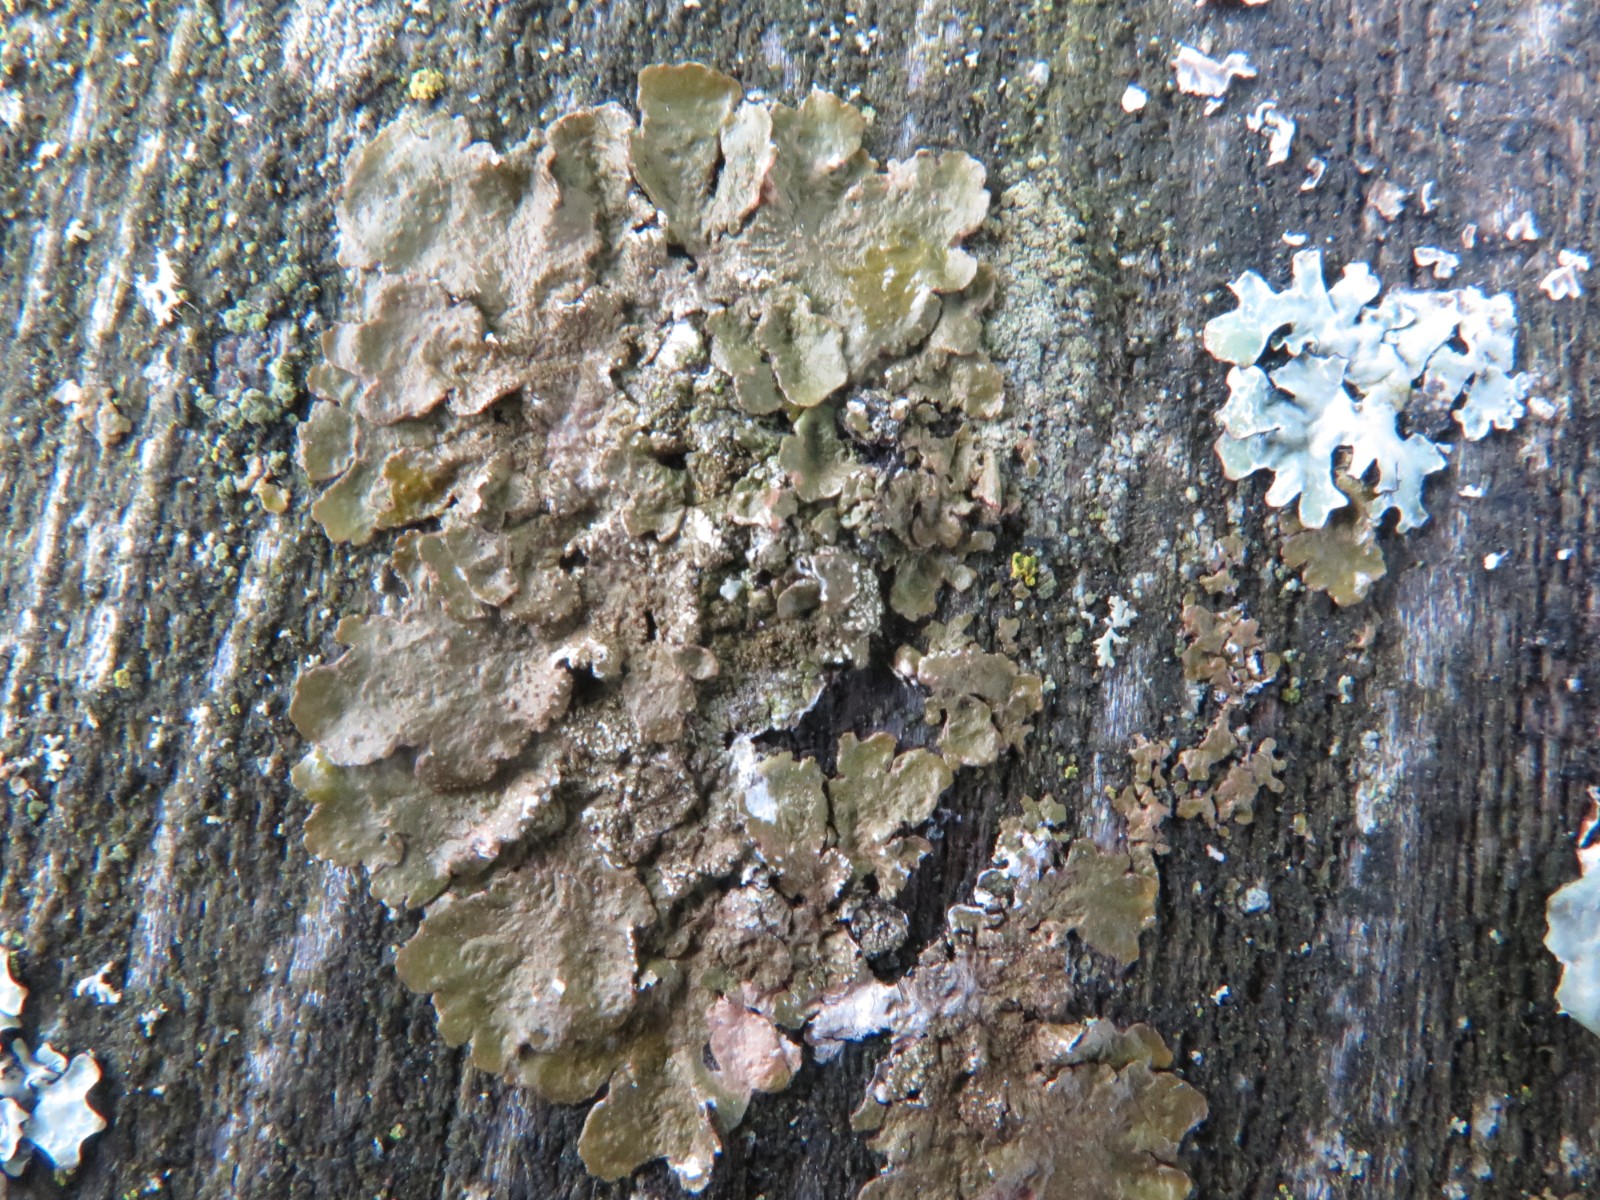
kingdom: Fungi
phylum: Ascomycota
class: Lecanoromycetes
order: Lecanorales
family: Parmeliaceae
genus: Melanelixia
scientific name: Melanelixia subaurifera
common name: guldpudret skållav
